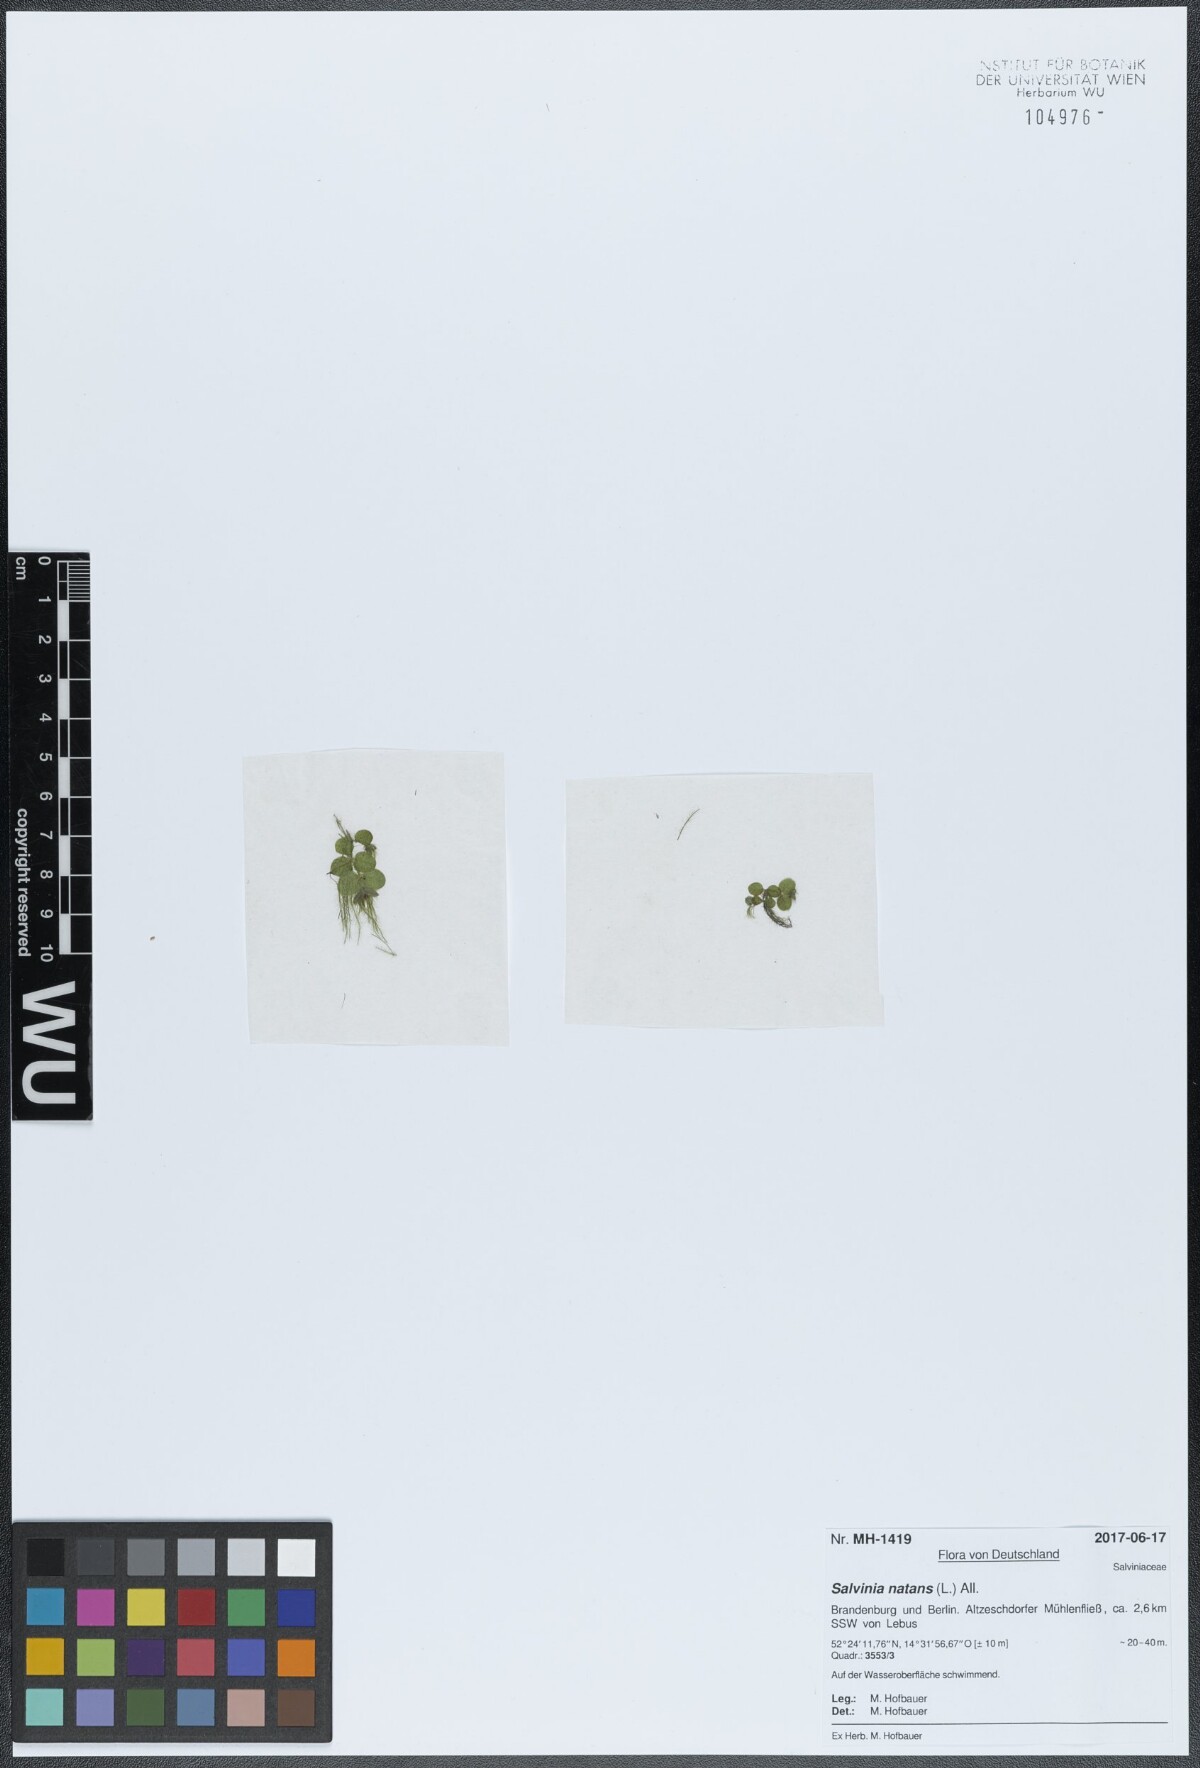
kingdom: Plantae
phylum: Tracheophyta
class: Polypodiopsida
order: Salviniales
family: Salviniaceae
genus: Salvinia
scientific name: Salvinia natans
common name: Floating fern
